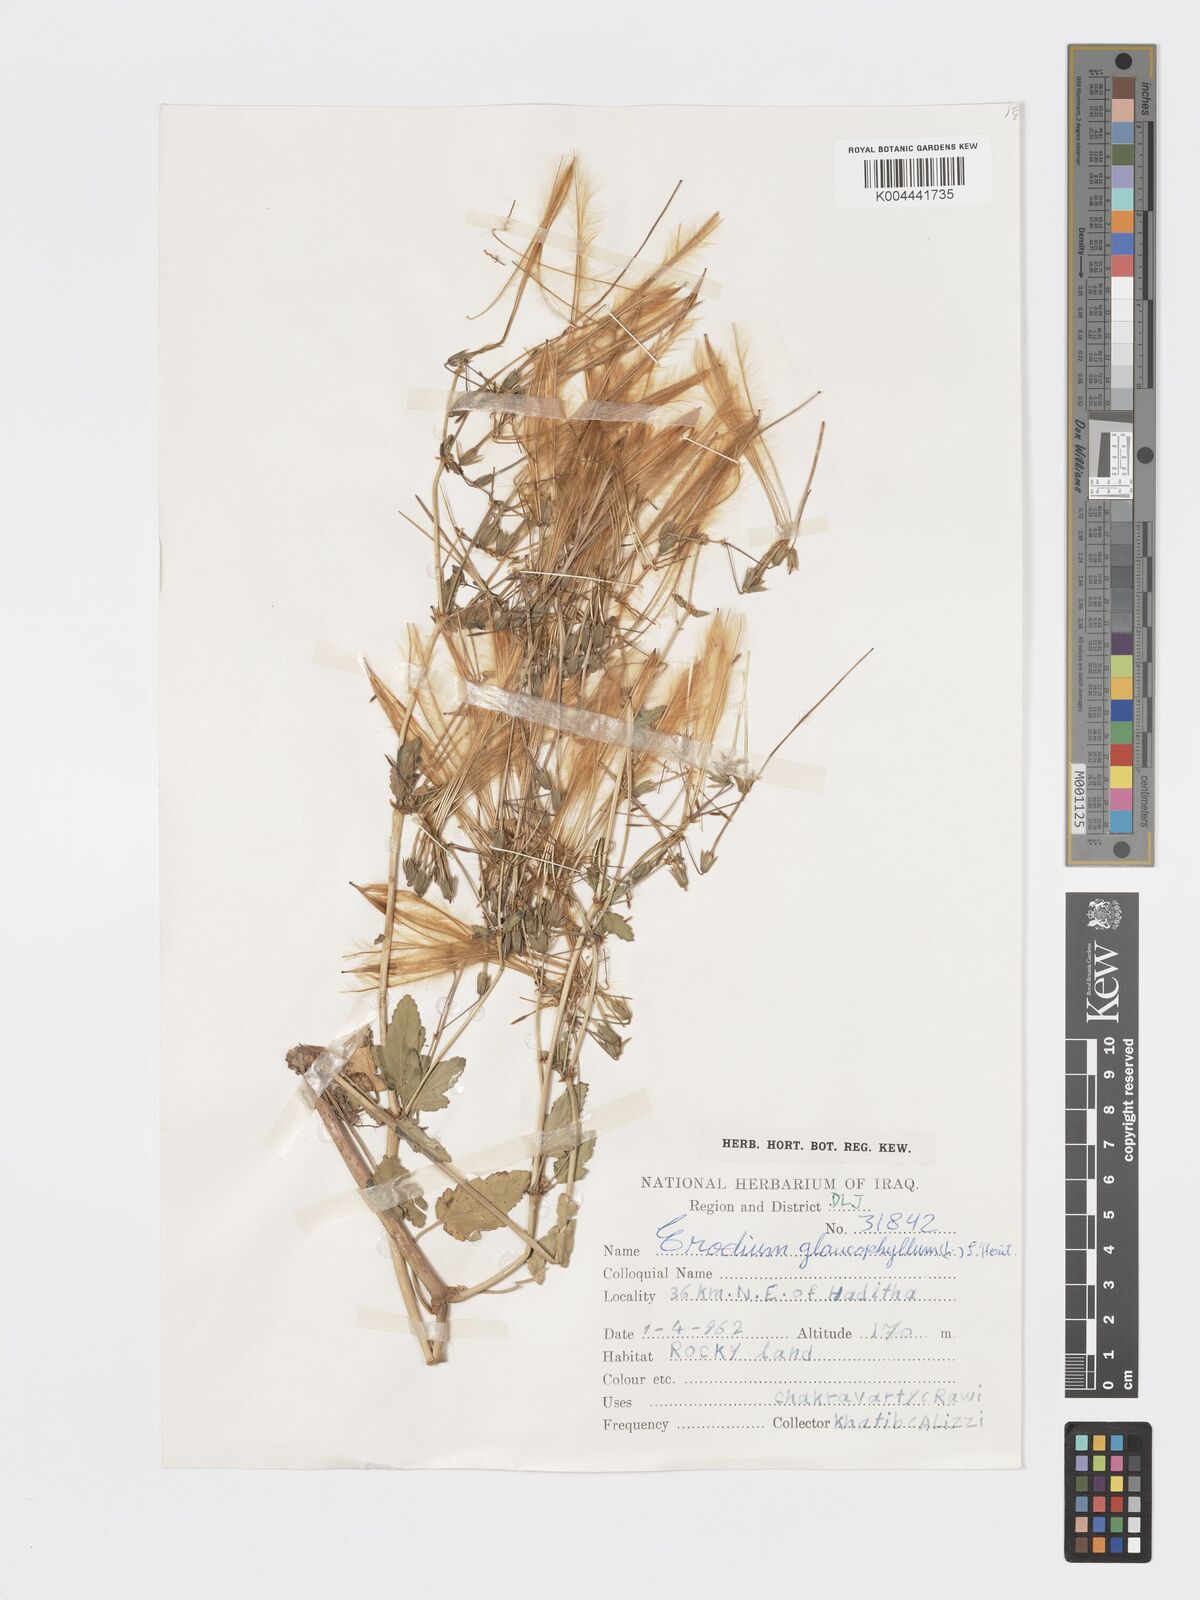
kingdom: Plantae
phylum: Tracheophyta
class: Magnoliopsida
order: Geraniales
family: Geraniaceae
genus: Erodium
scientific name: Erodium glaucophyllum
